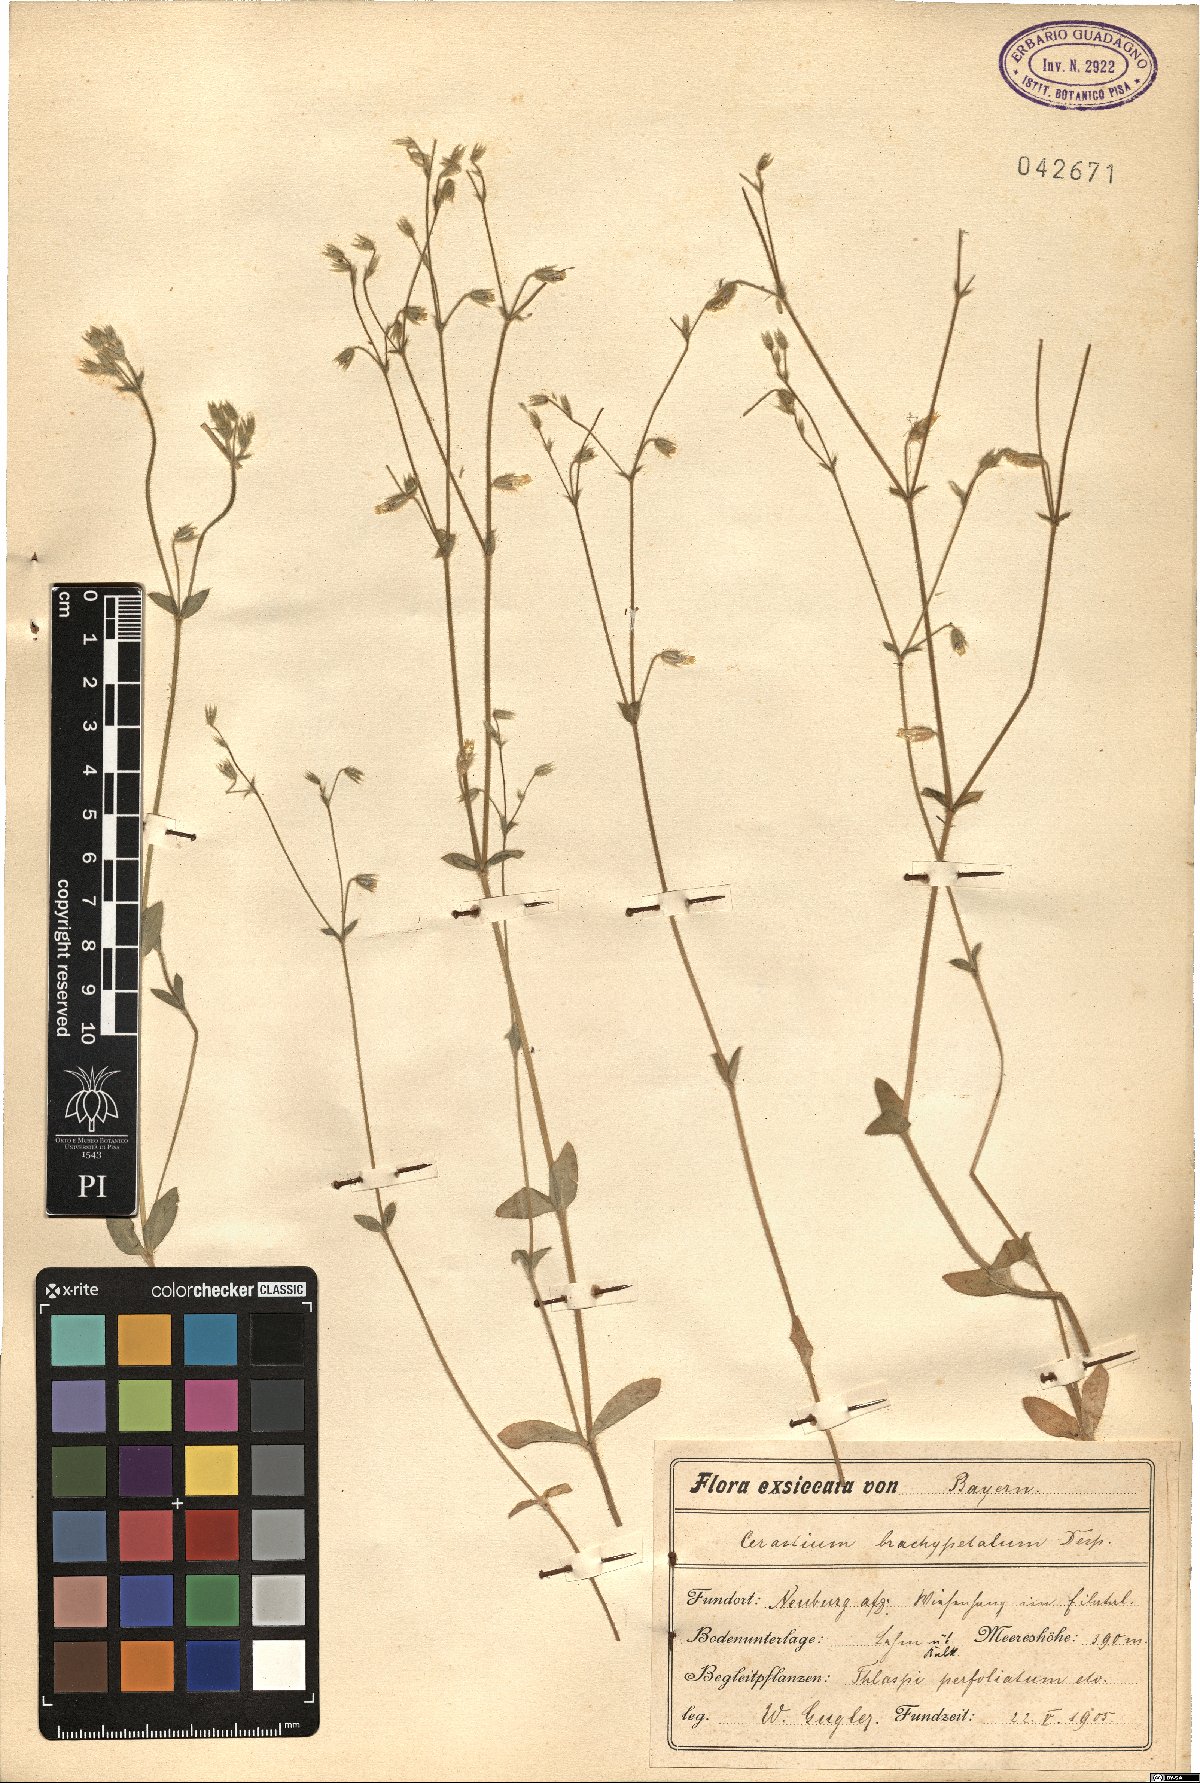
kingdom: Plantae
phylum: Tracheophyta
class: Magnoliopsida
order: Caryophyllales
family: Caryophyllaceae
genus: Cerastium
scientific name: Cerastium brachypetalum
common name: Grey mouse-ear
